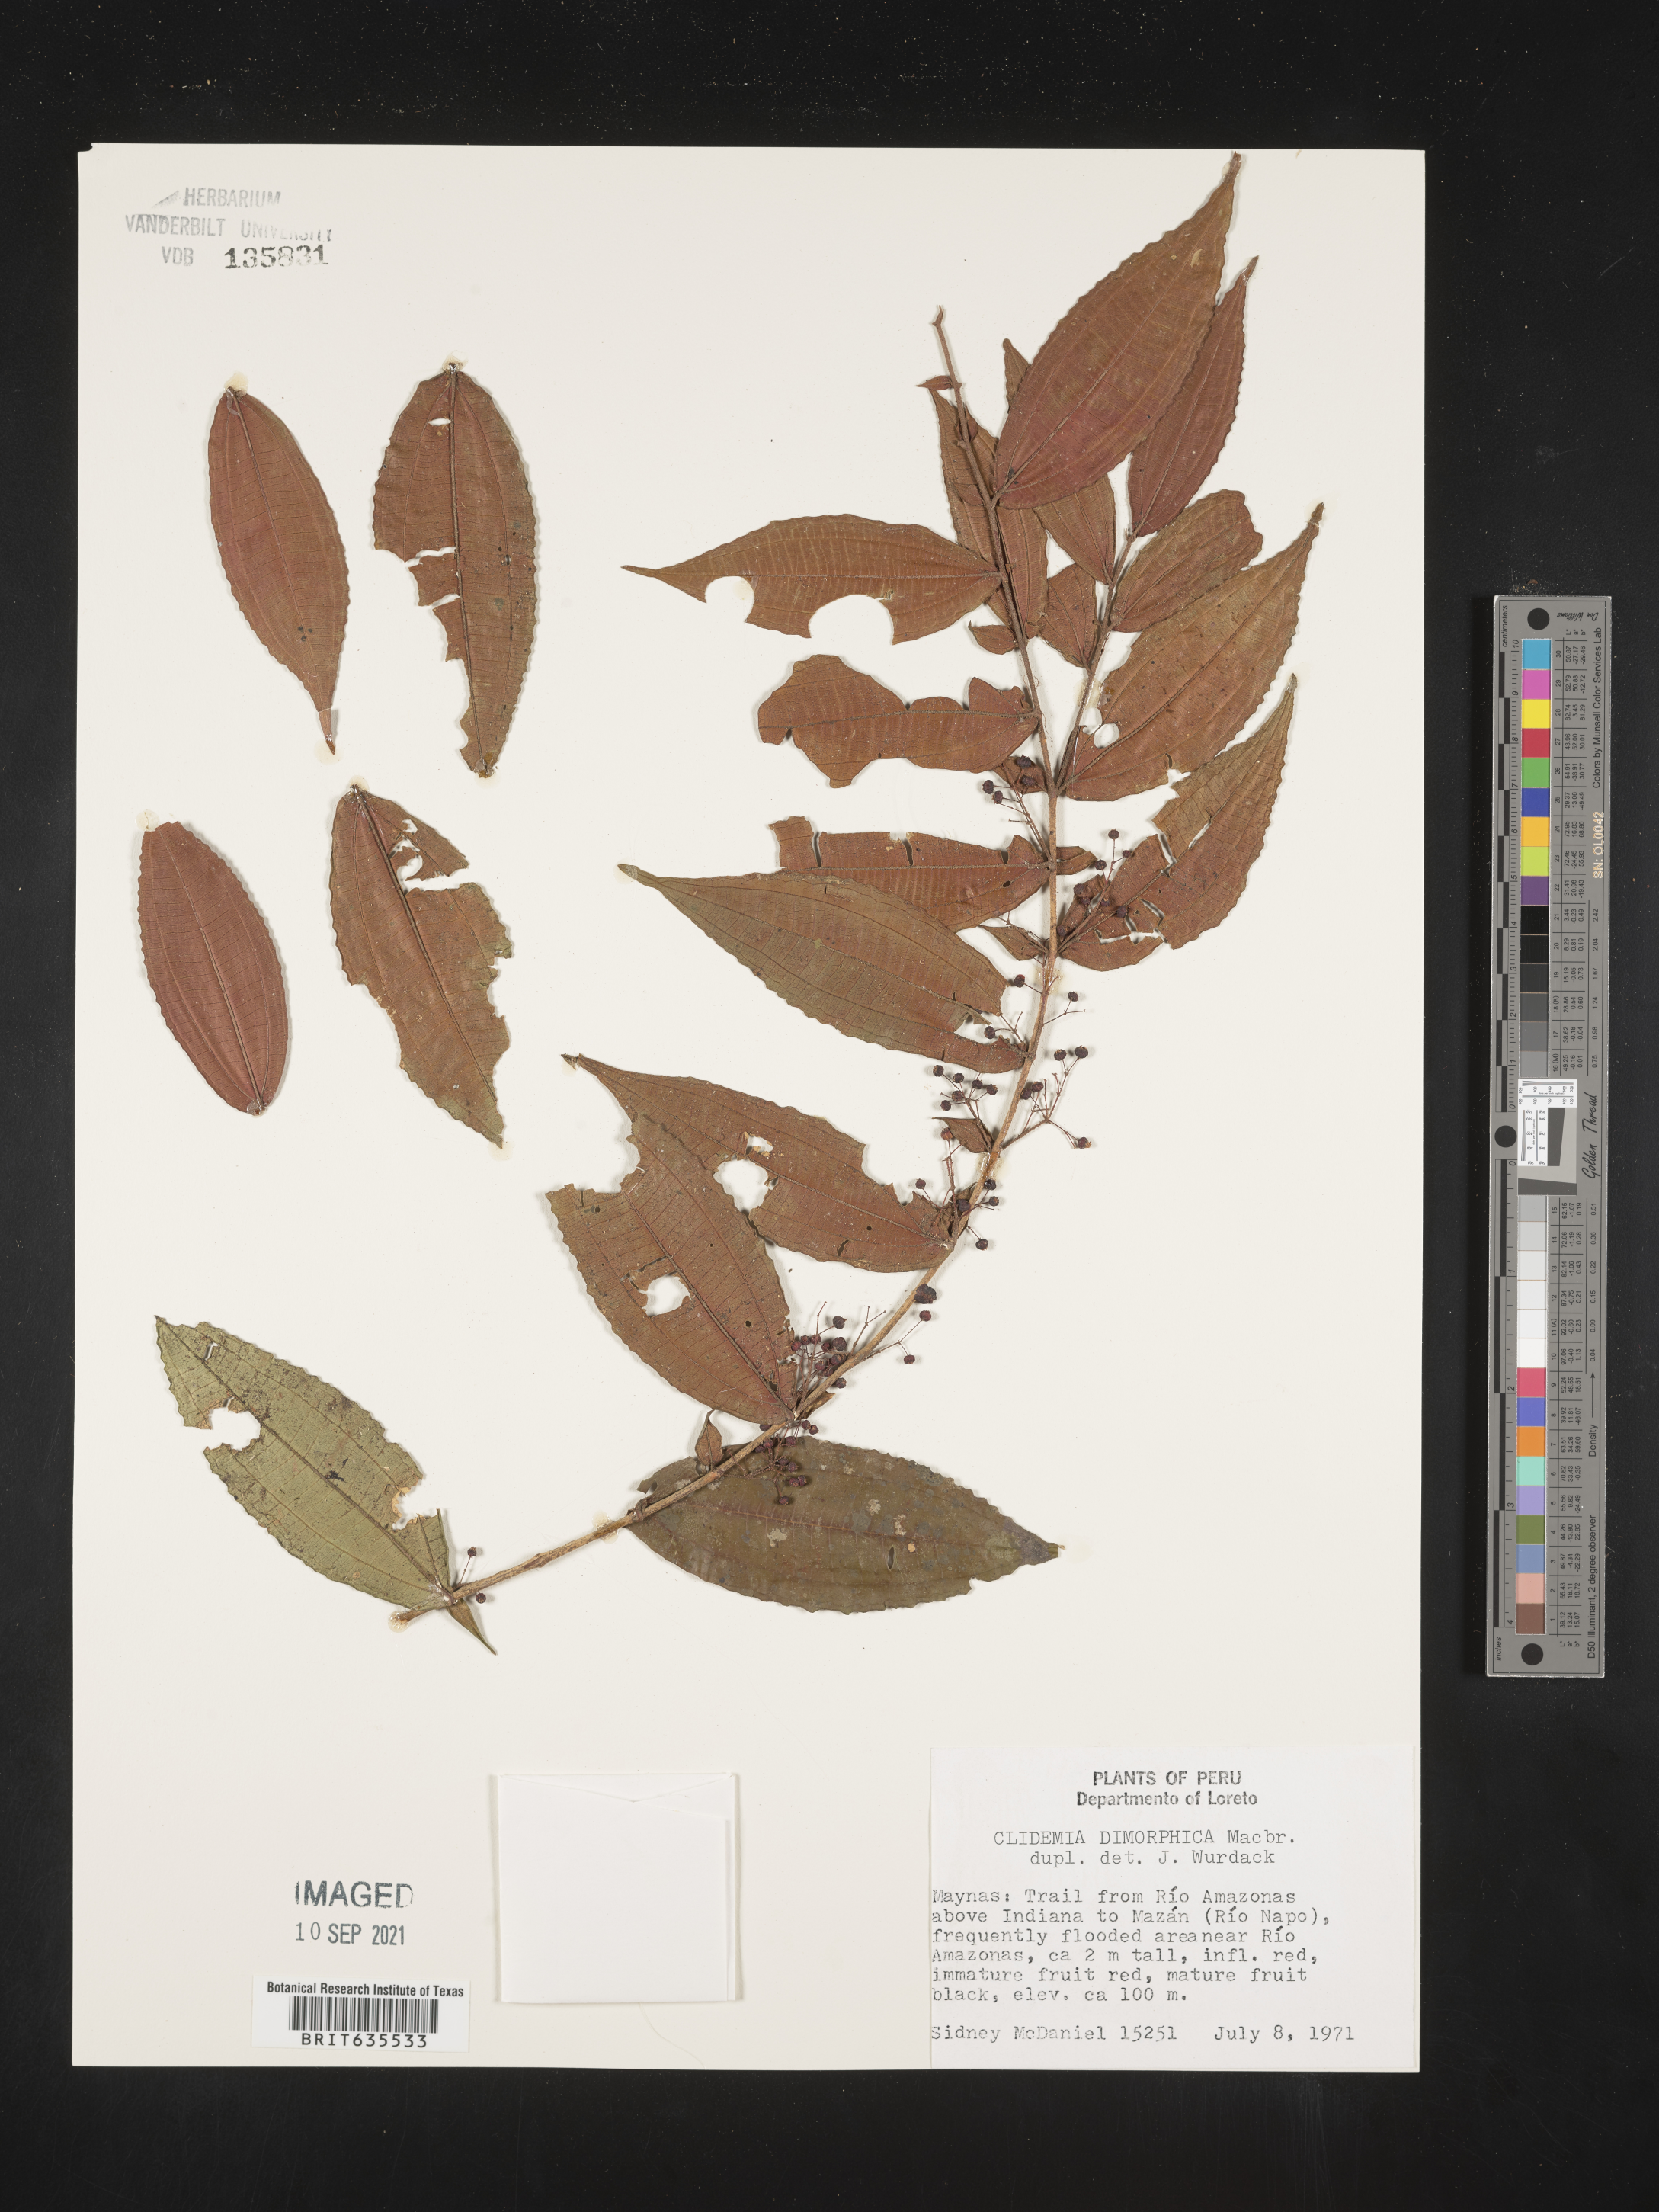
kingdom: Plantae
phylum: Tracheophyta
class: Magnoliopsida
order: Myrtales
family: Melastomataceae
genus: Miconia
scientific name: Miconia
